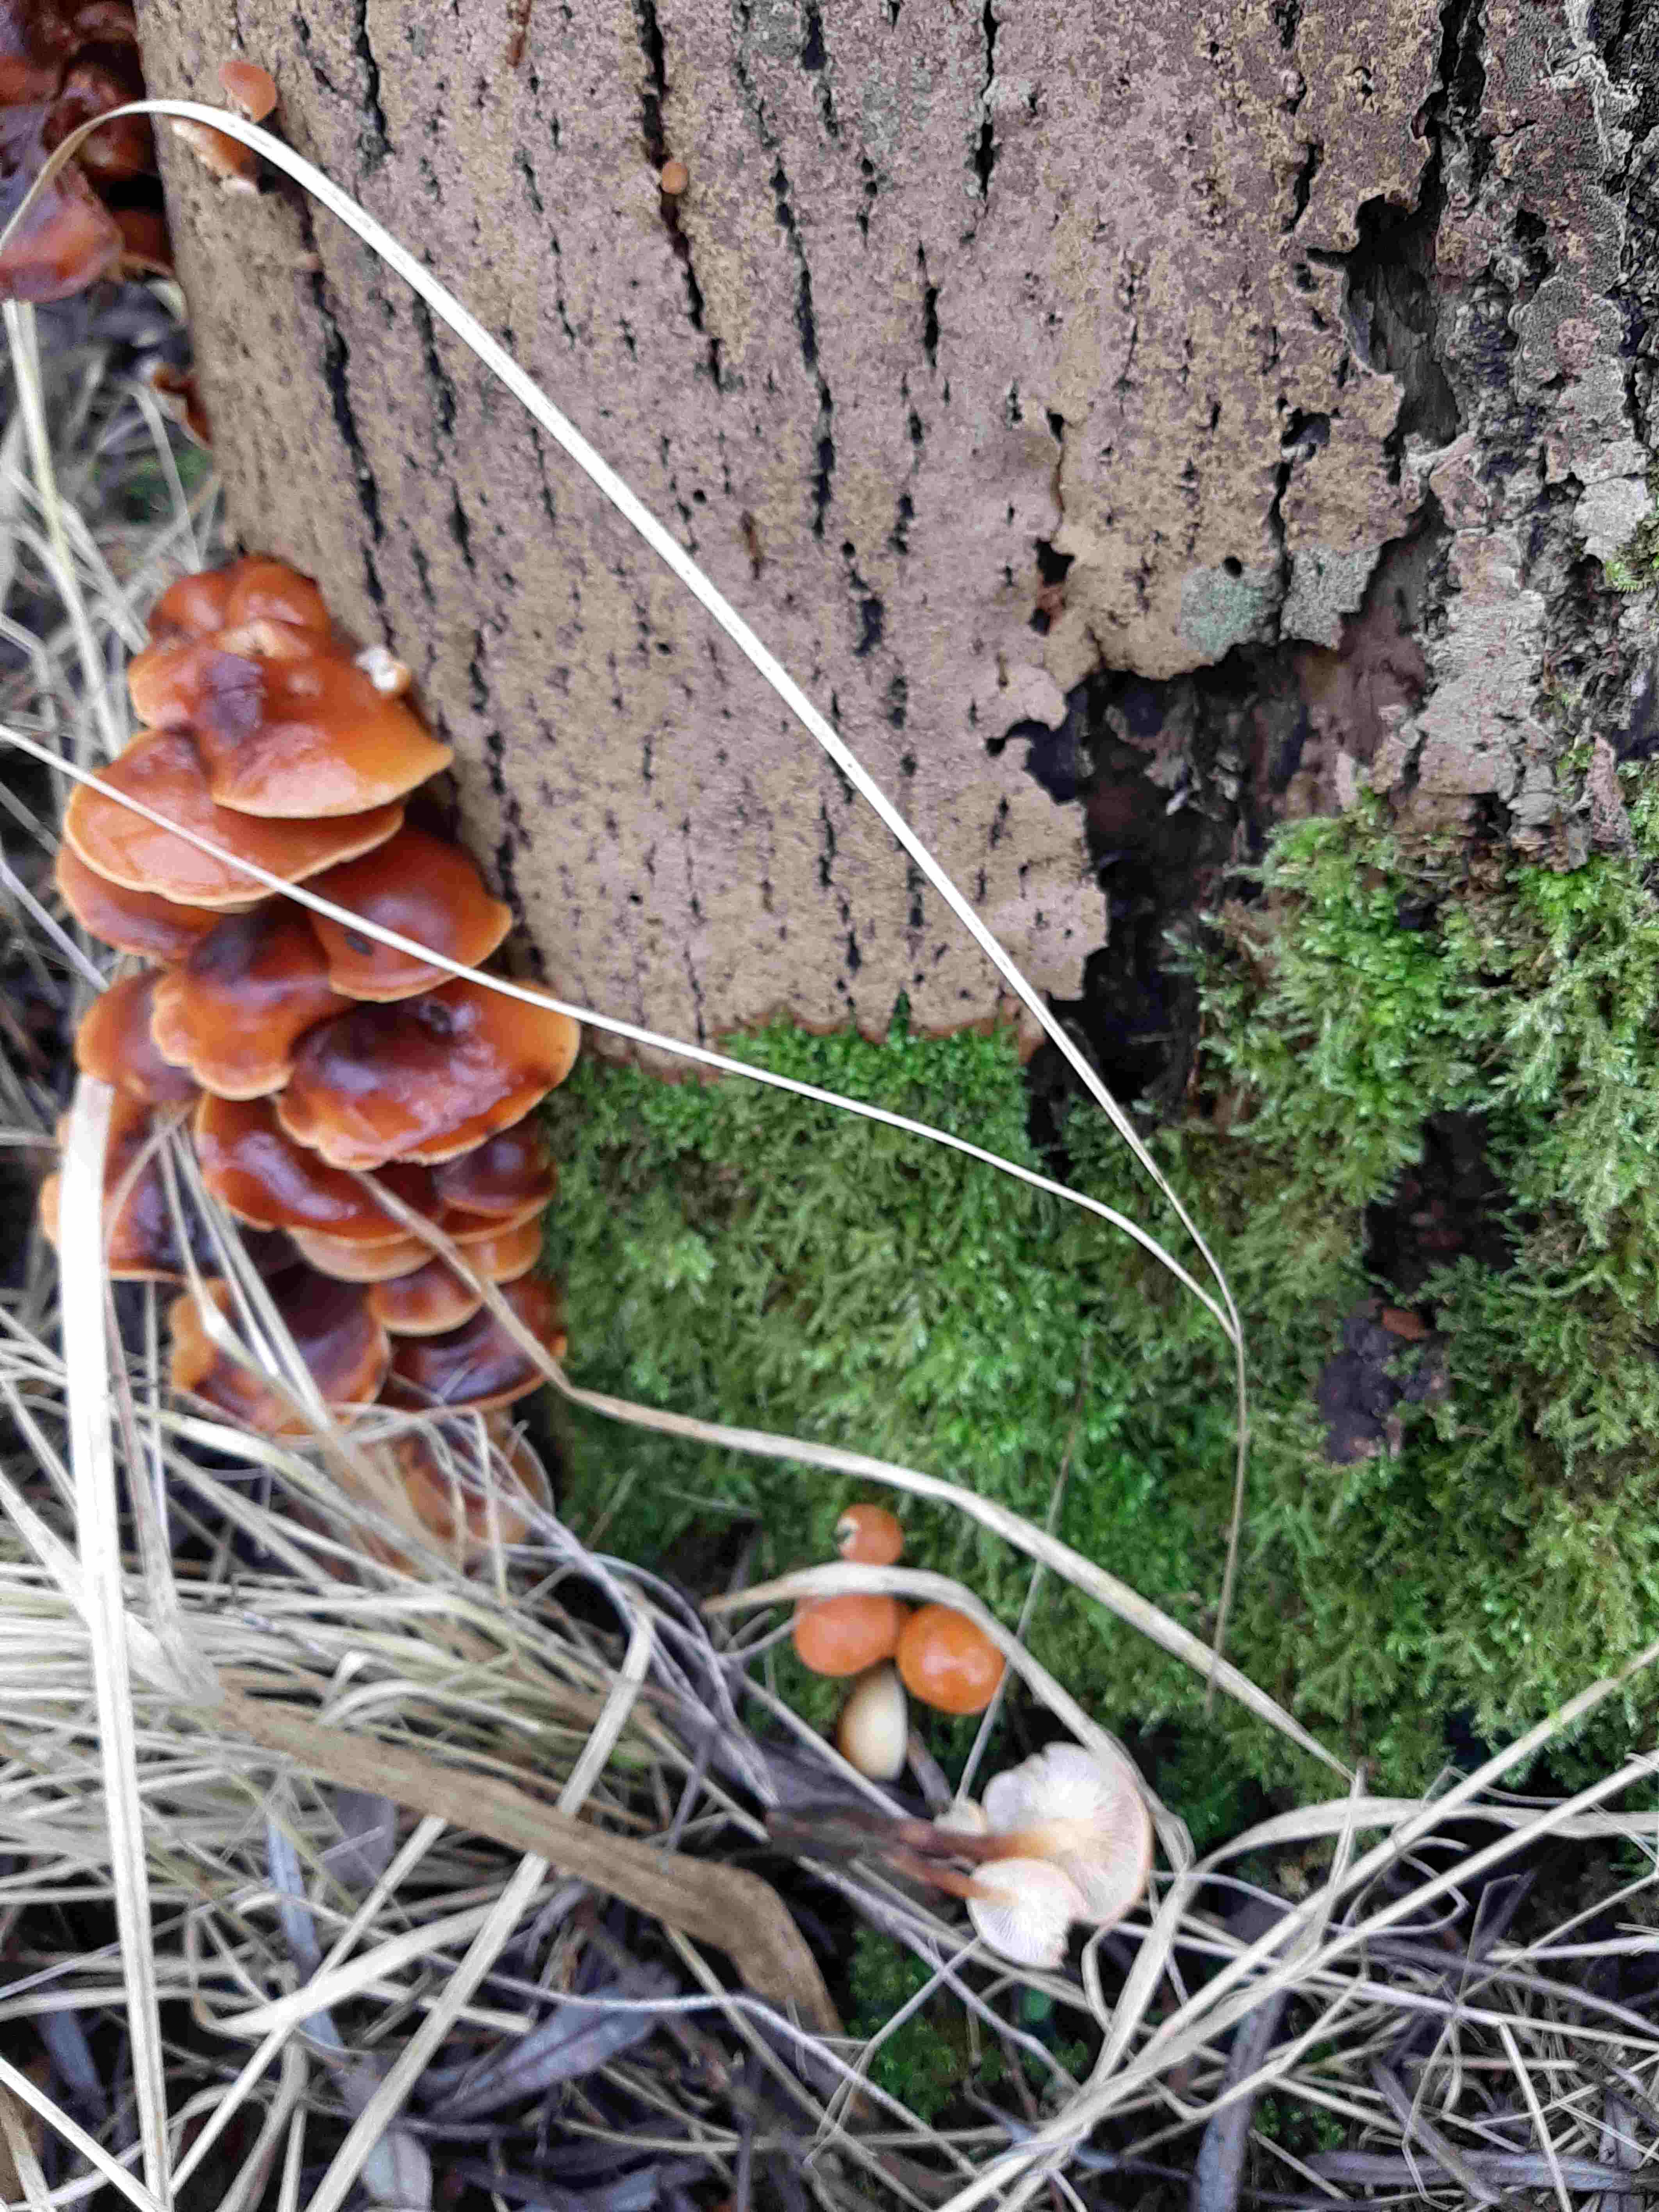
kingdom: Fungi
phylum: Basidiomycota
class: Agaricomycetes
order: Agaricales
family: Physalacriaceae
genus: Flammulina
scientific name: Flammulina
